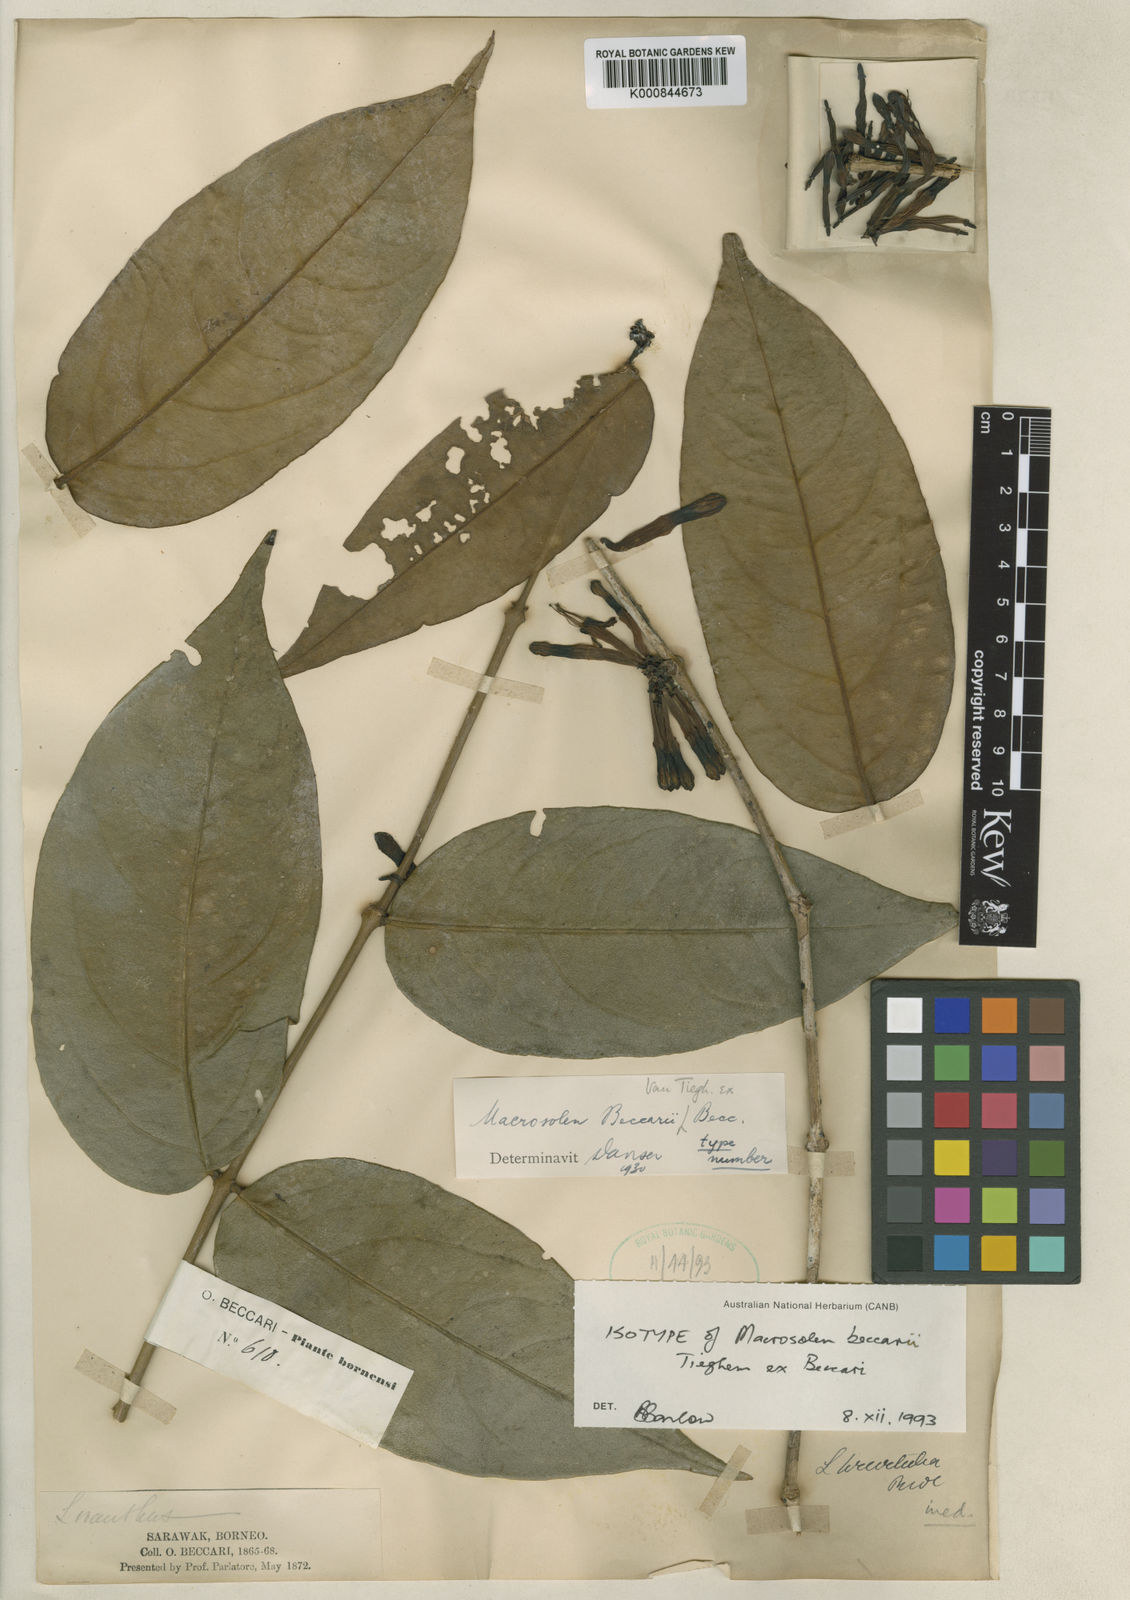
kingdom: Plantae
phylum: Tracheophyta
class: Magnoliopsida
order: Santalales
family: Loranthaceae
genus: Macrosolen
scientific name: Macrosolen beccarii
